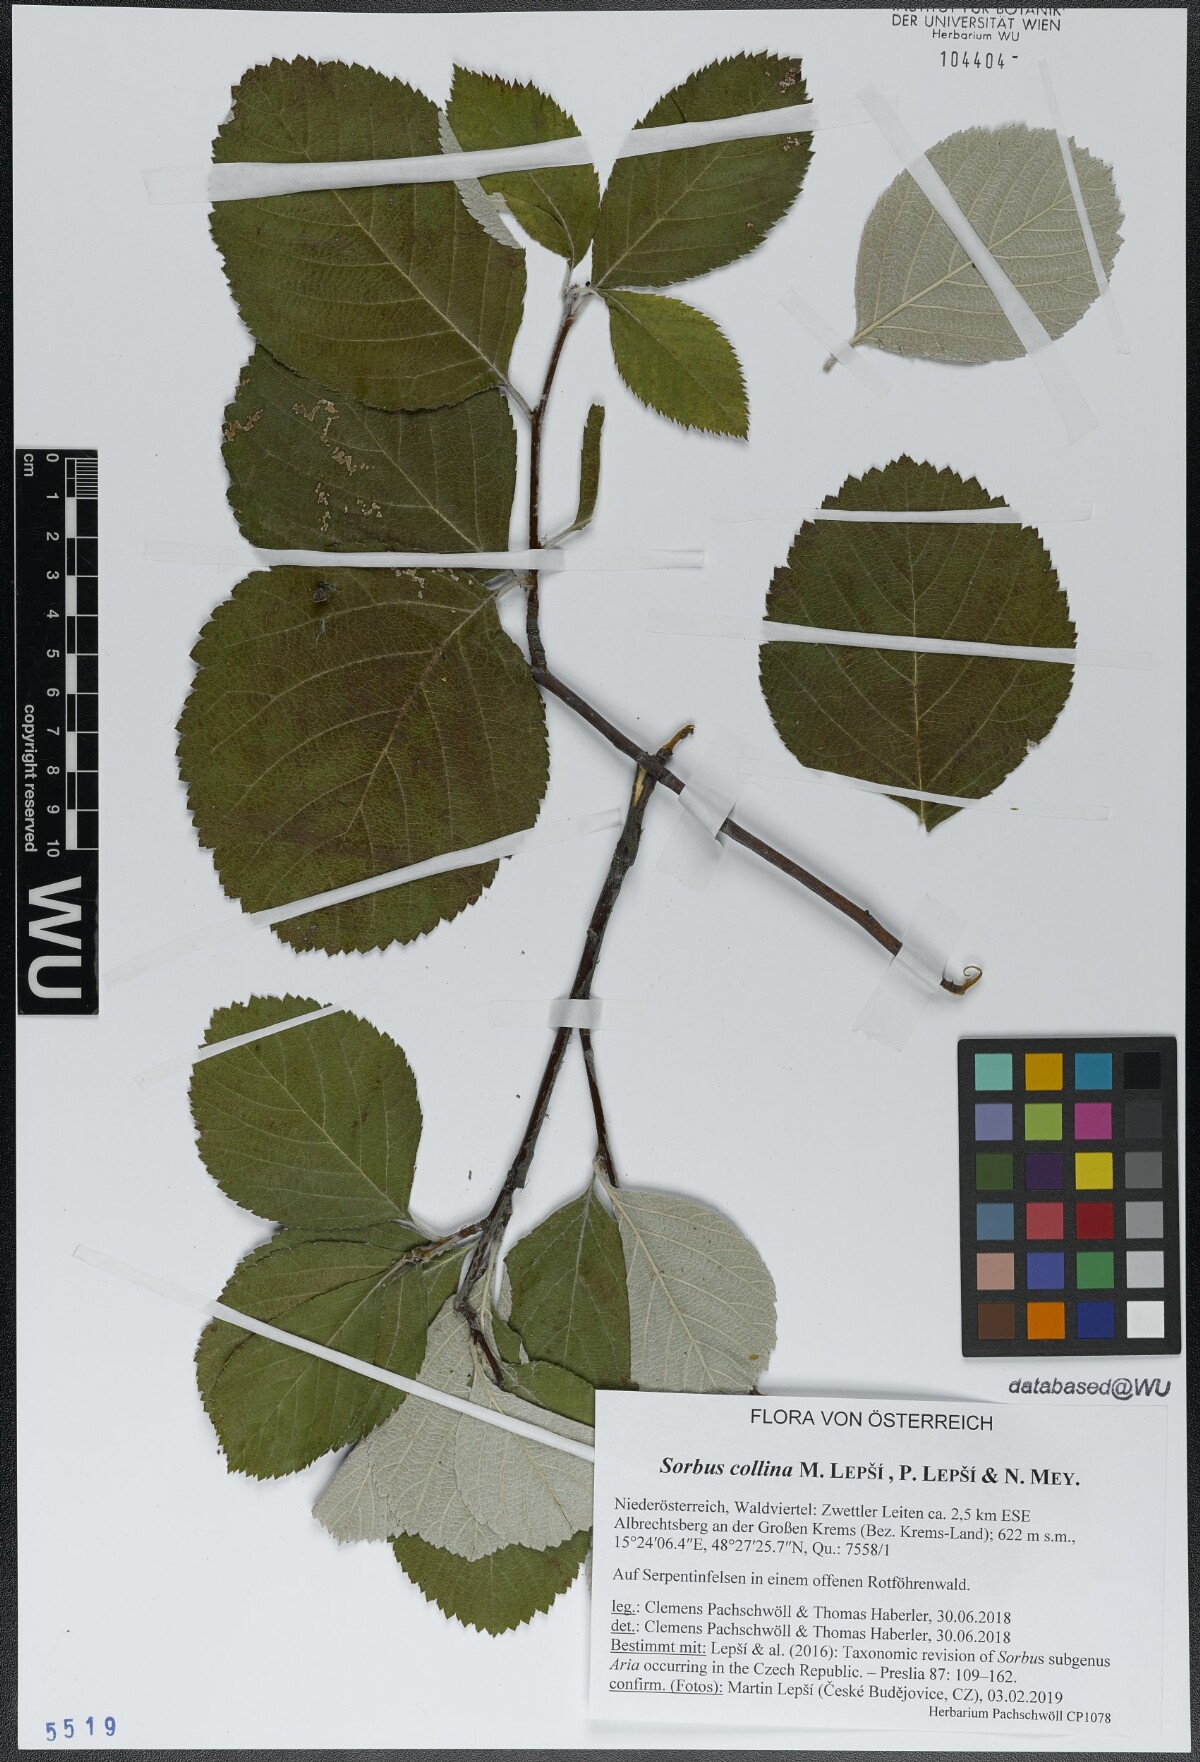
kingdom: Plantae
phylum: Tracheophyta
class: Magnoliopsida
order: Rosales
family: Rosaceae
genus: Aria
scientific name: Aria collina
